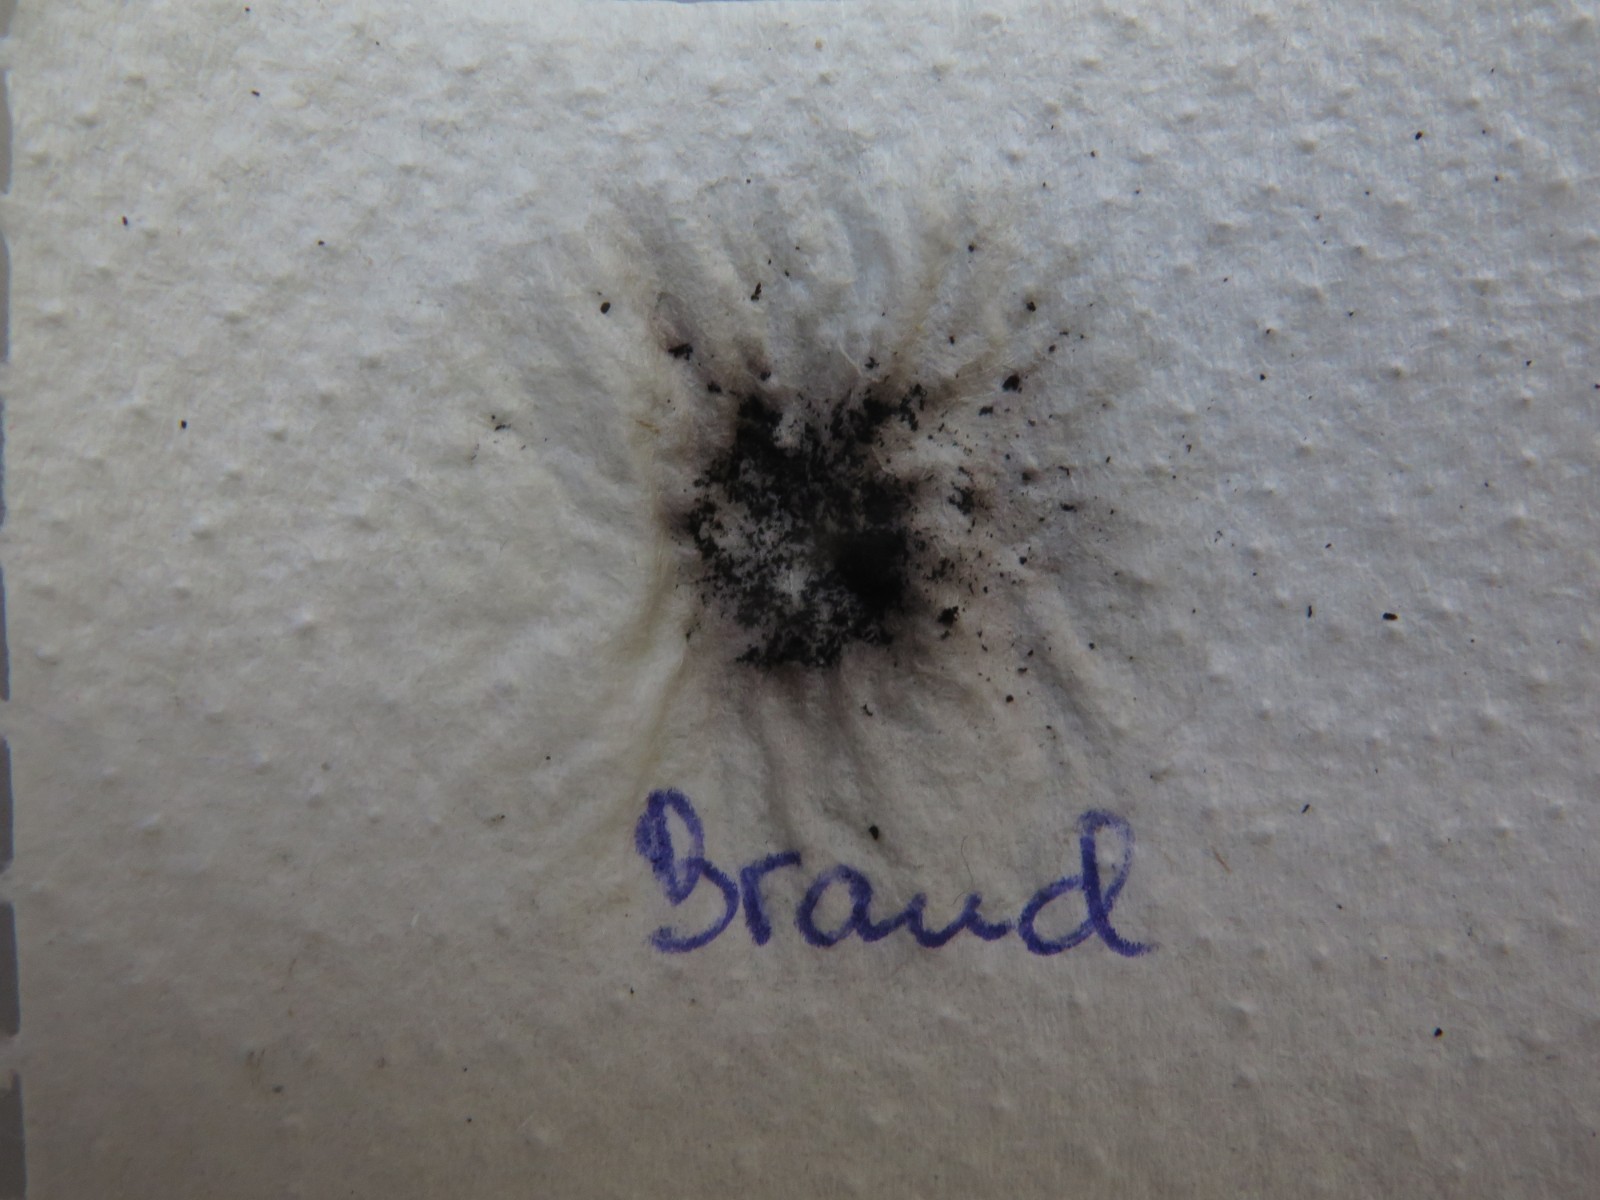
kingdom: Fungi
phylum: Ascomycota
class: Sordariomycetes
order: Xylariales
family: Hypoxylaceae
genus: Daldinia
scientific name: Daldinia concentrica
